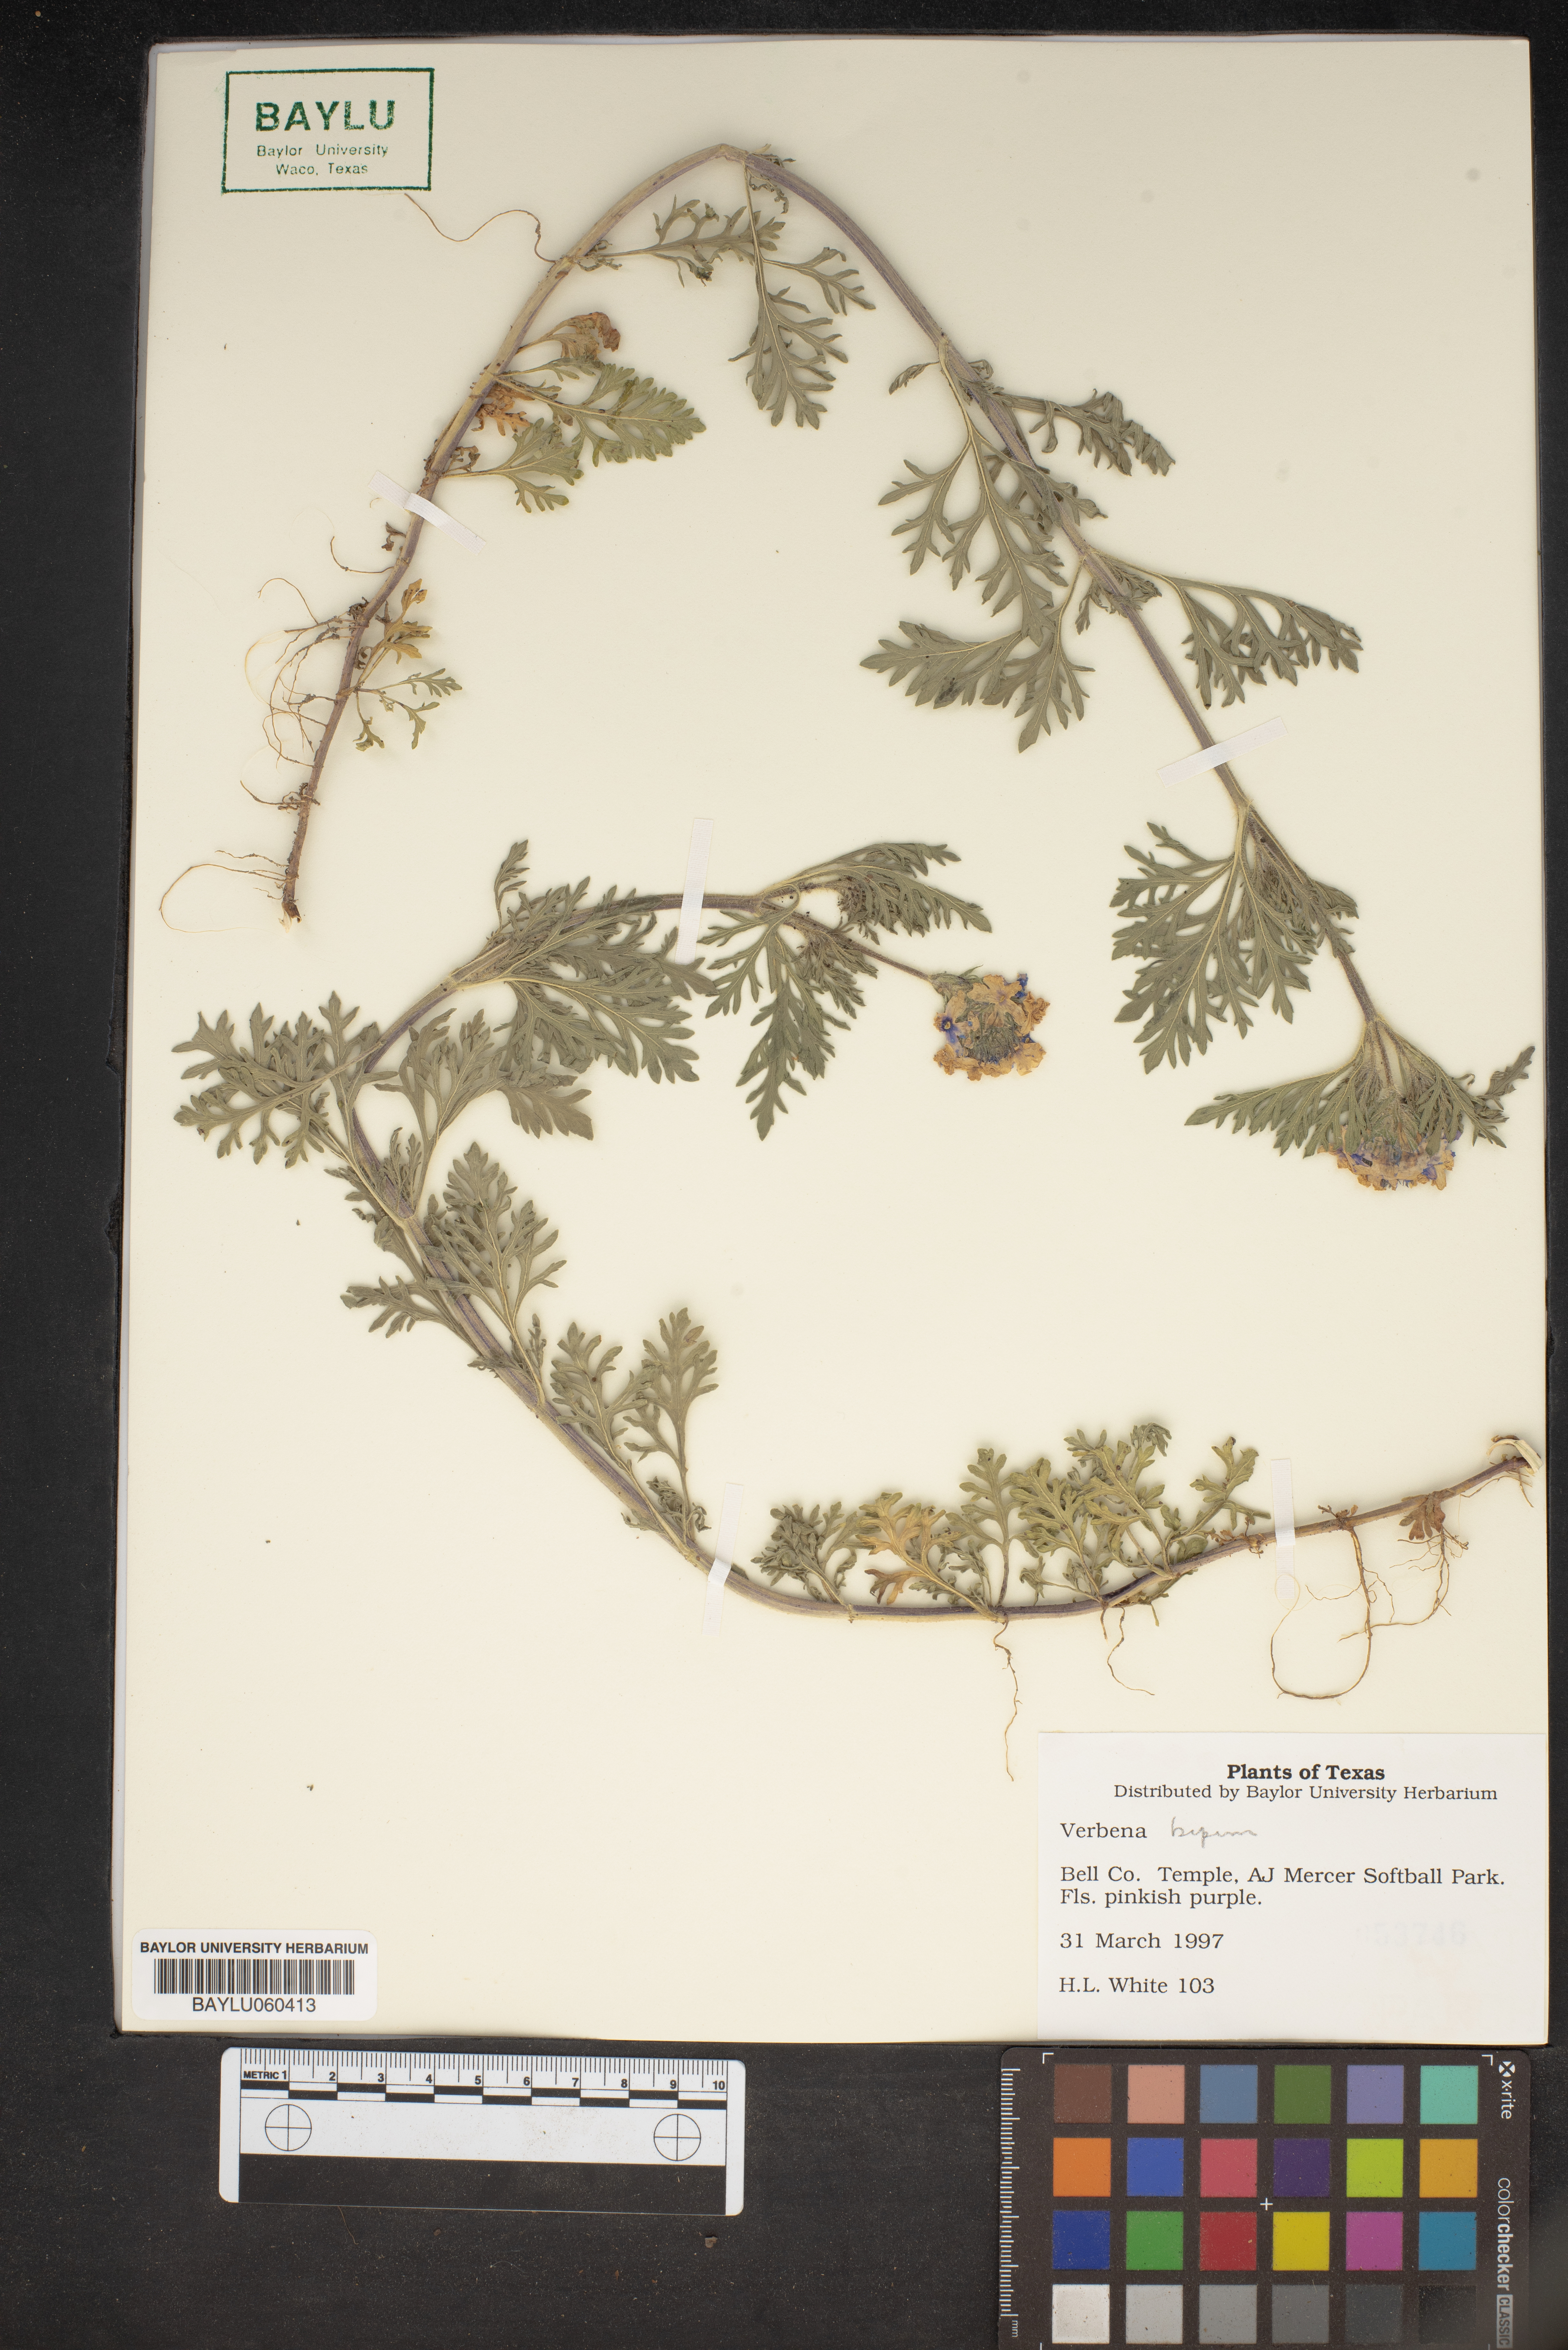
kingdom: Plantae
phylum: Tracheophyta
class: Magnoliopsida
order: Lamiales
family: Verbenaceae
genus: Verbena
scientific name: Verbena bipinnatifida
